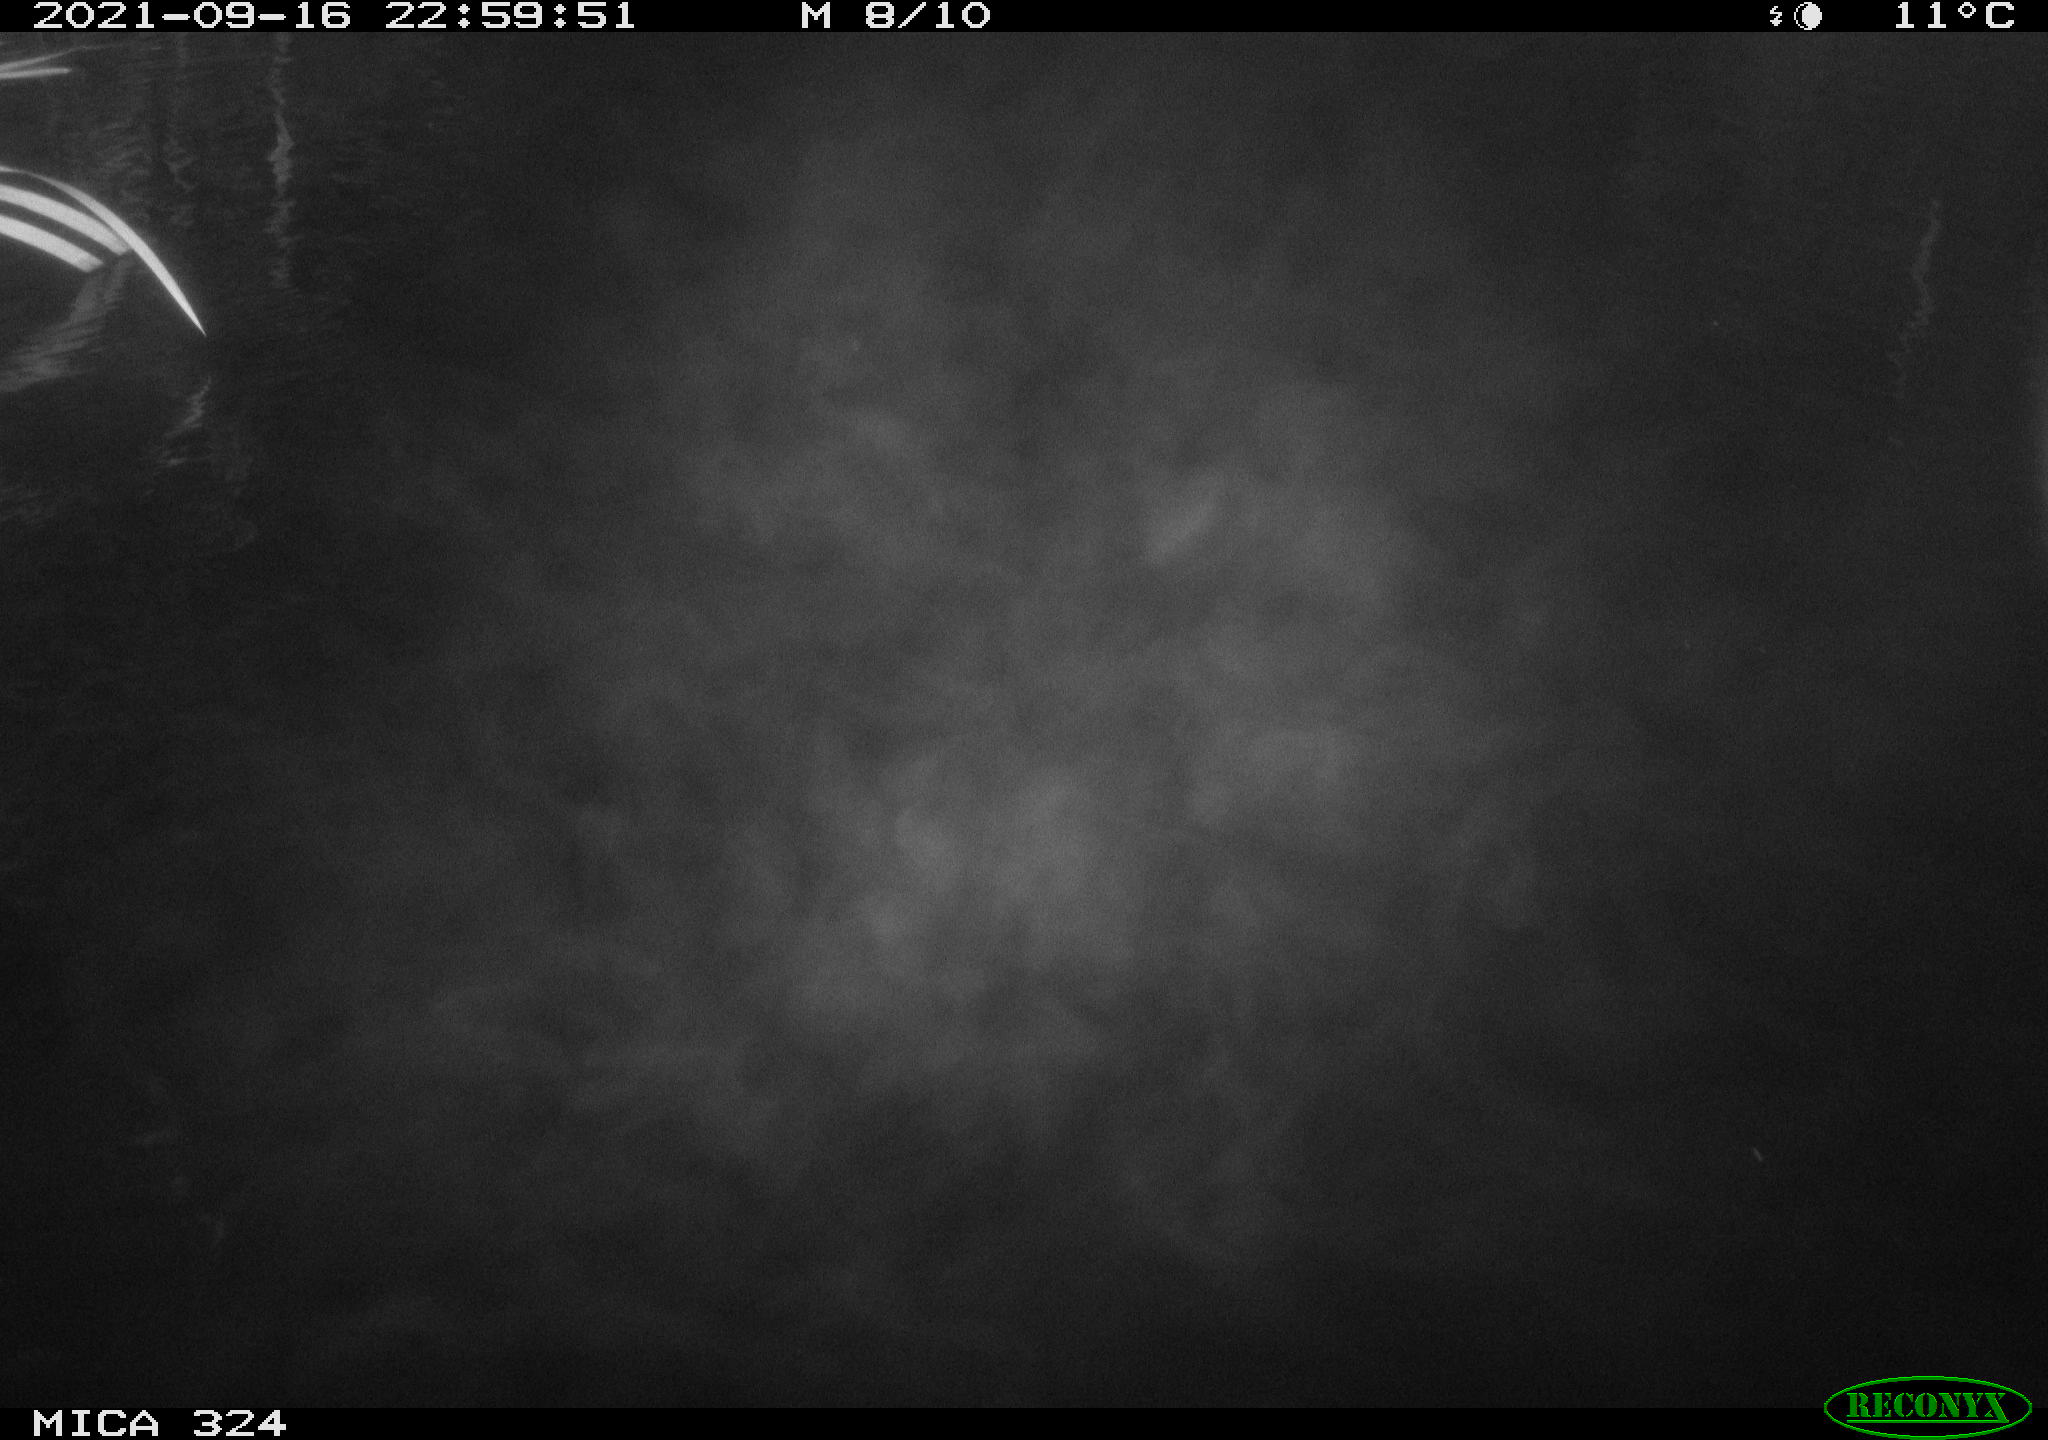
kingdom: Animalia
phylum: Chordata
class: Mammalia
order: Rodentia
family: Cricetidae
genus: Ondatra
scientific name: Ondatra zibethicus
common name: Muskrat
